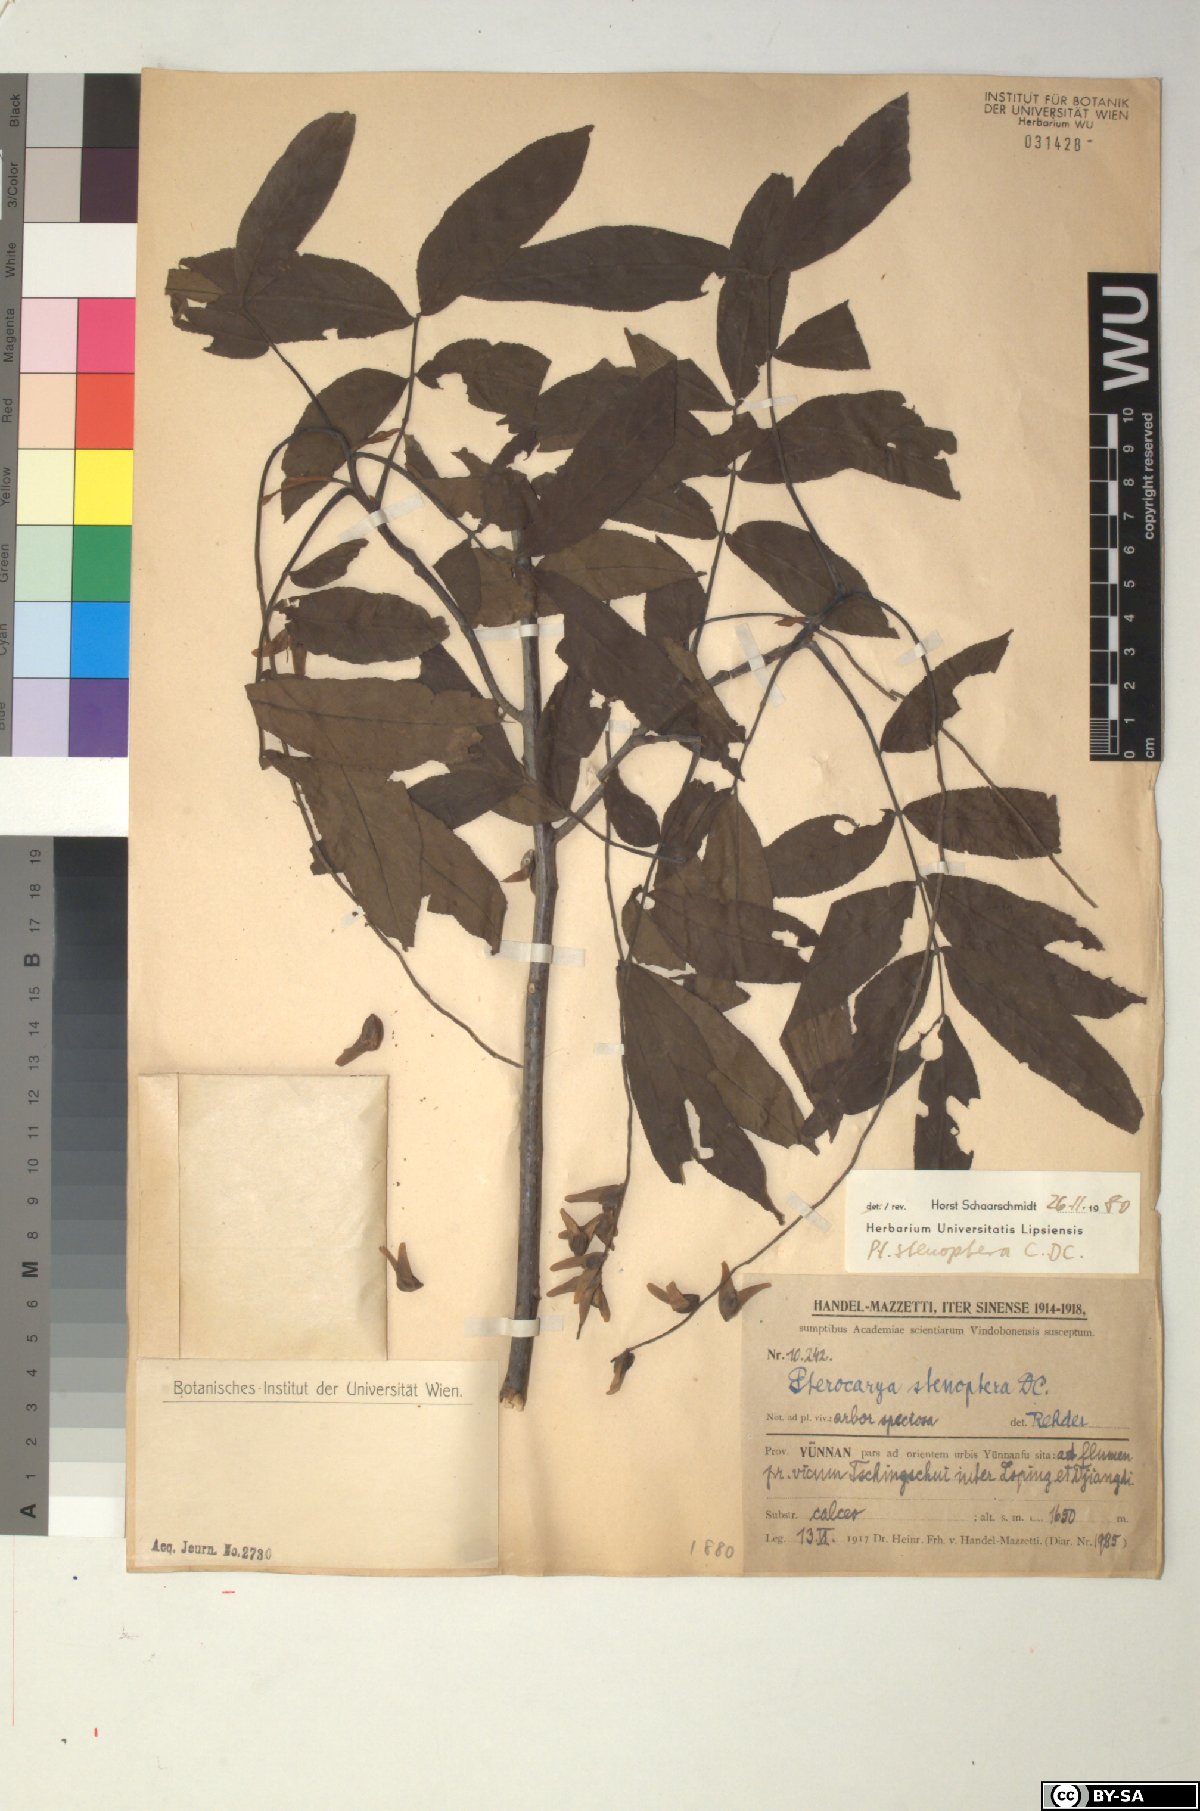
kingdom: Plantae
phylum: Tracheophyta
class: Magnoliopsida
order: Fagales
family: Juglandaceae
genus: Pterocarya
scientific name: Pterocarya stenoptera
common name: Chinese wingnut
